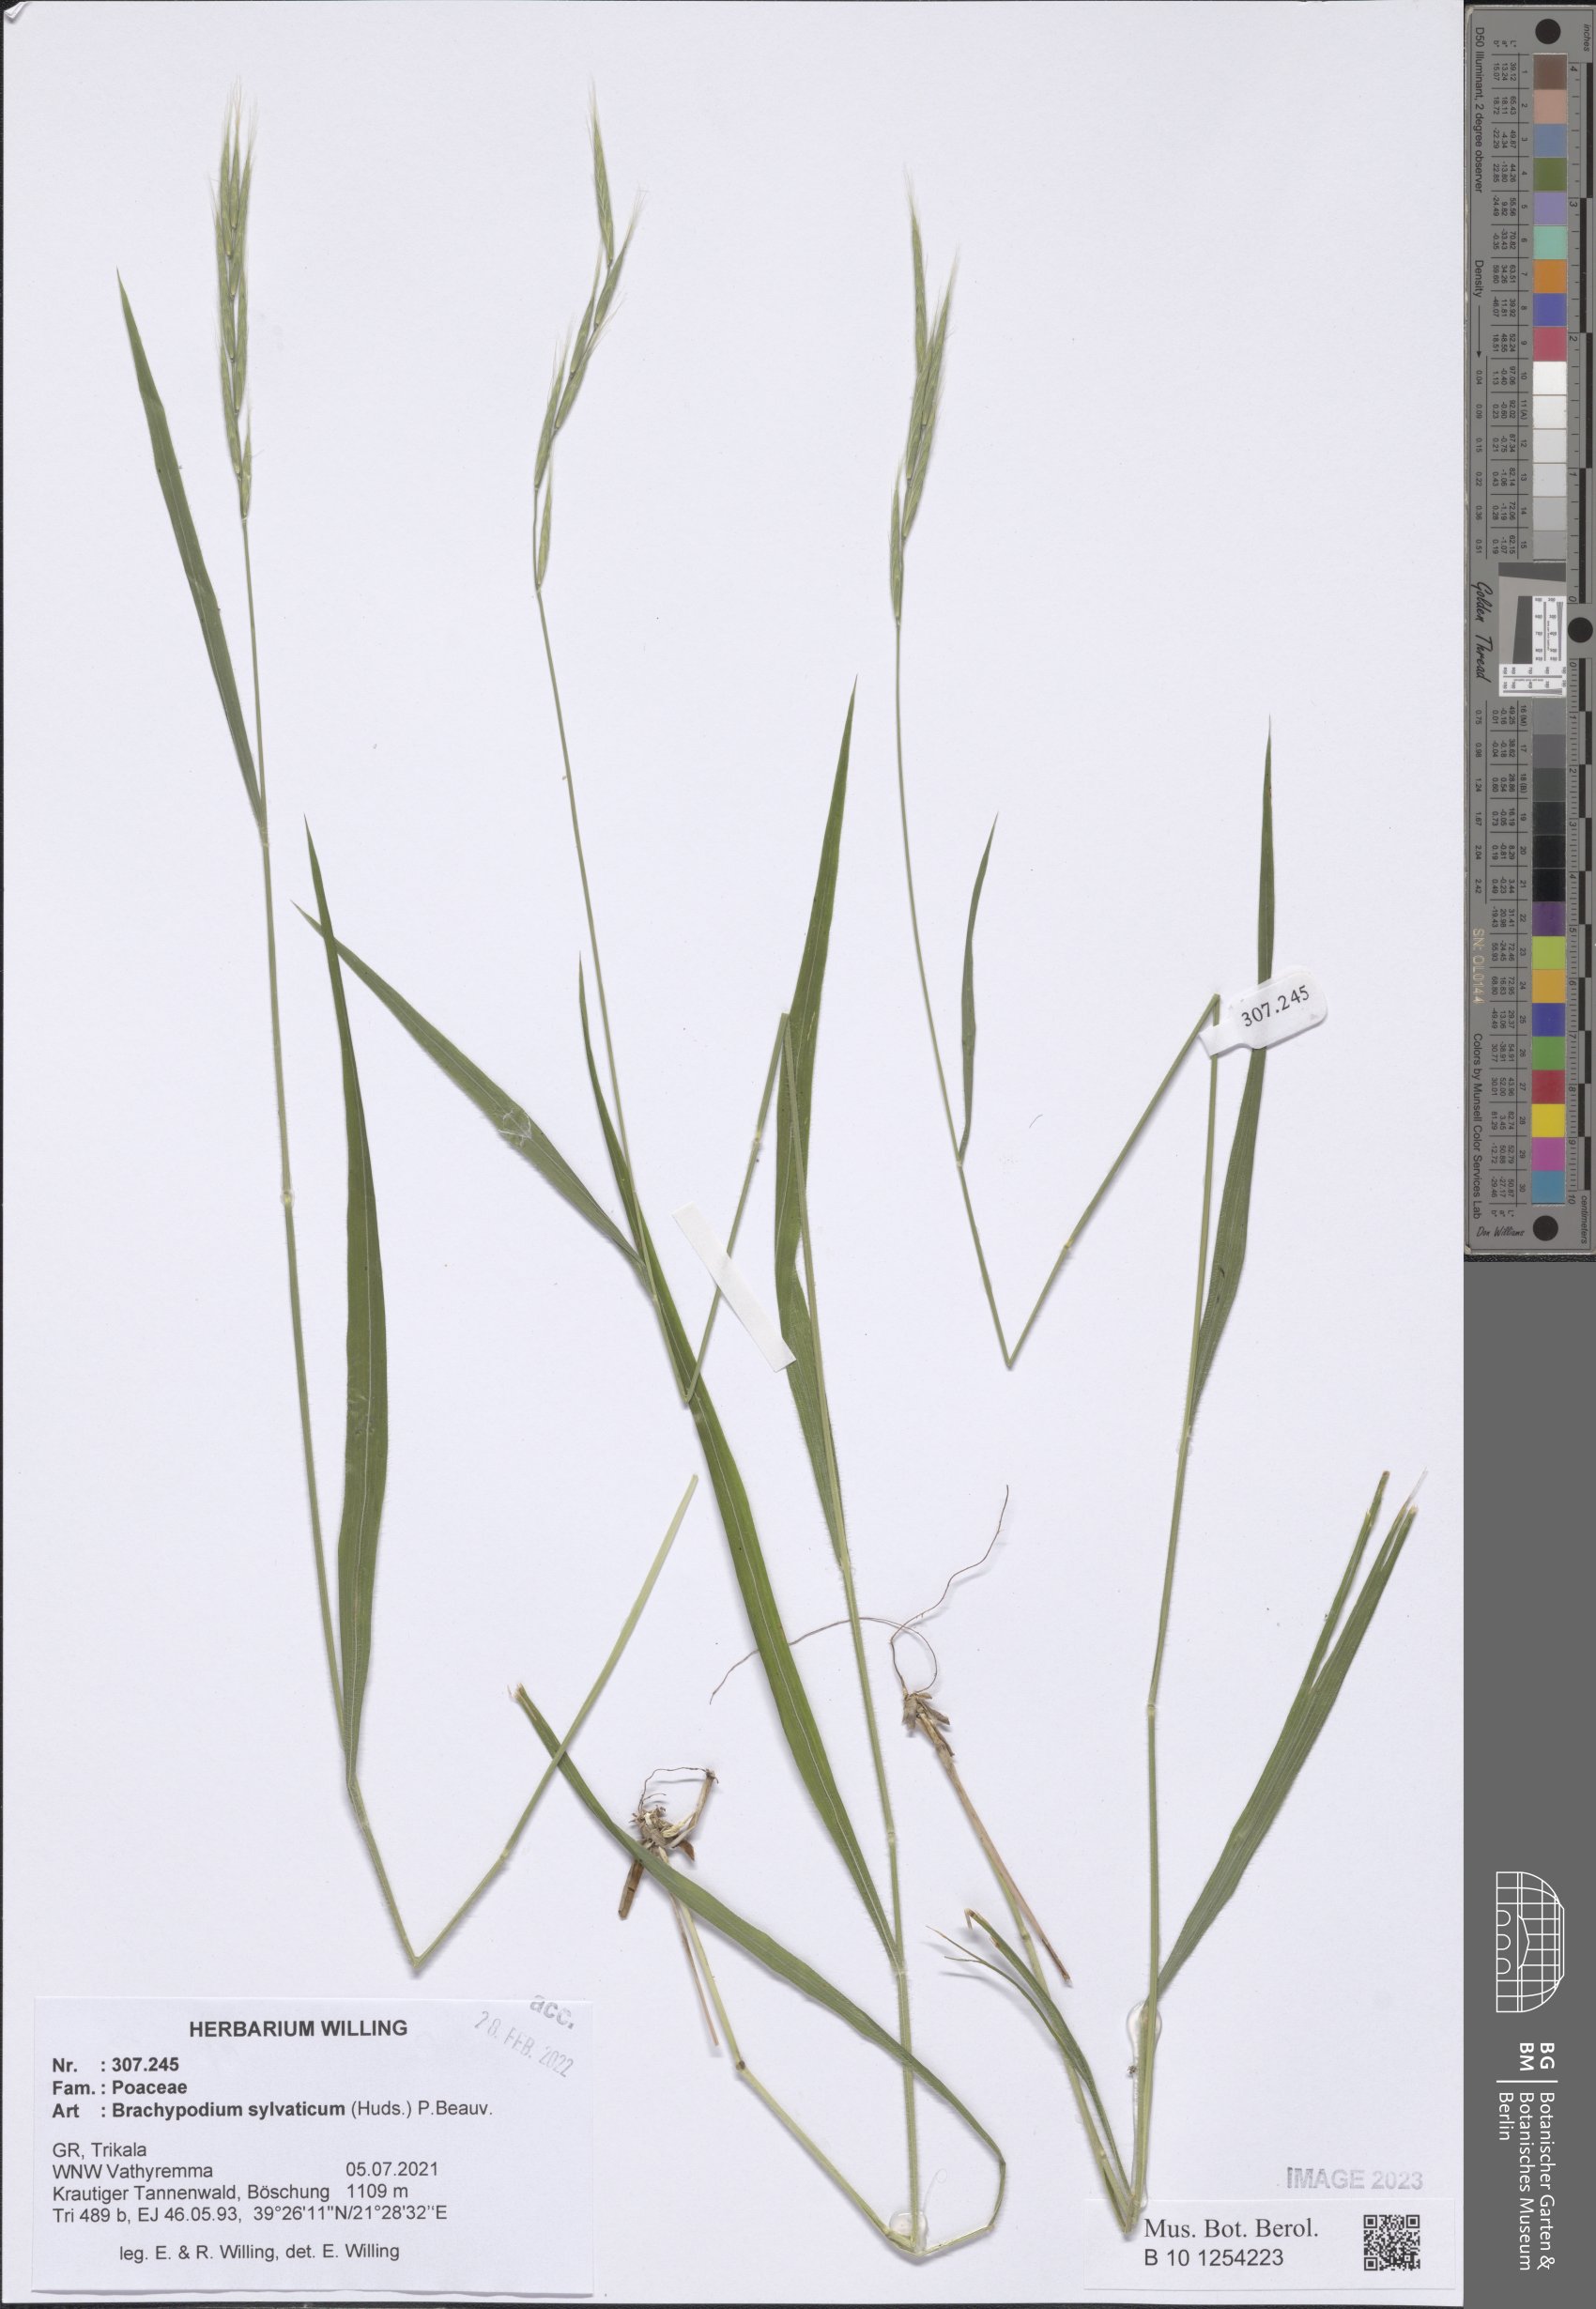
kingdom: Plantae
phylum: Tracheophyta
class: Liliopsida
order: Poales
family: Poaceae
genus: Brachypodium
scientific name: Brachypodium sylvaticum
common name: False-brome
